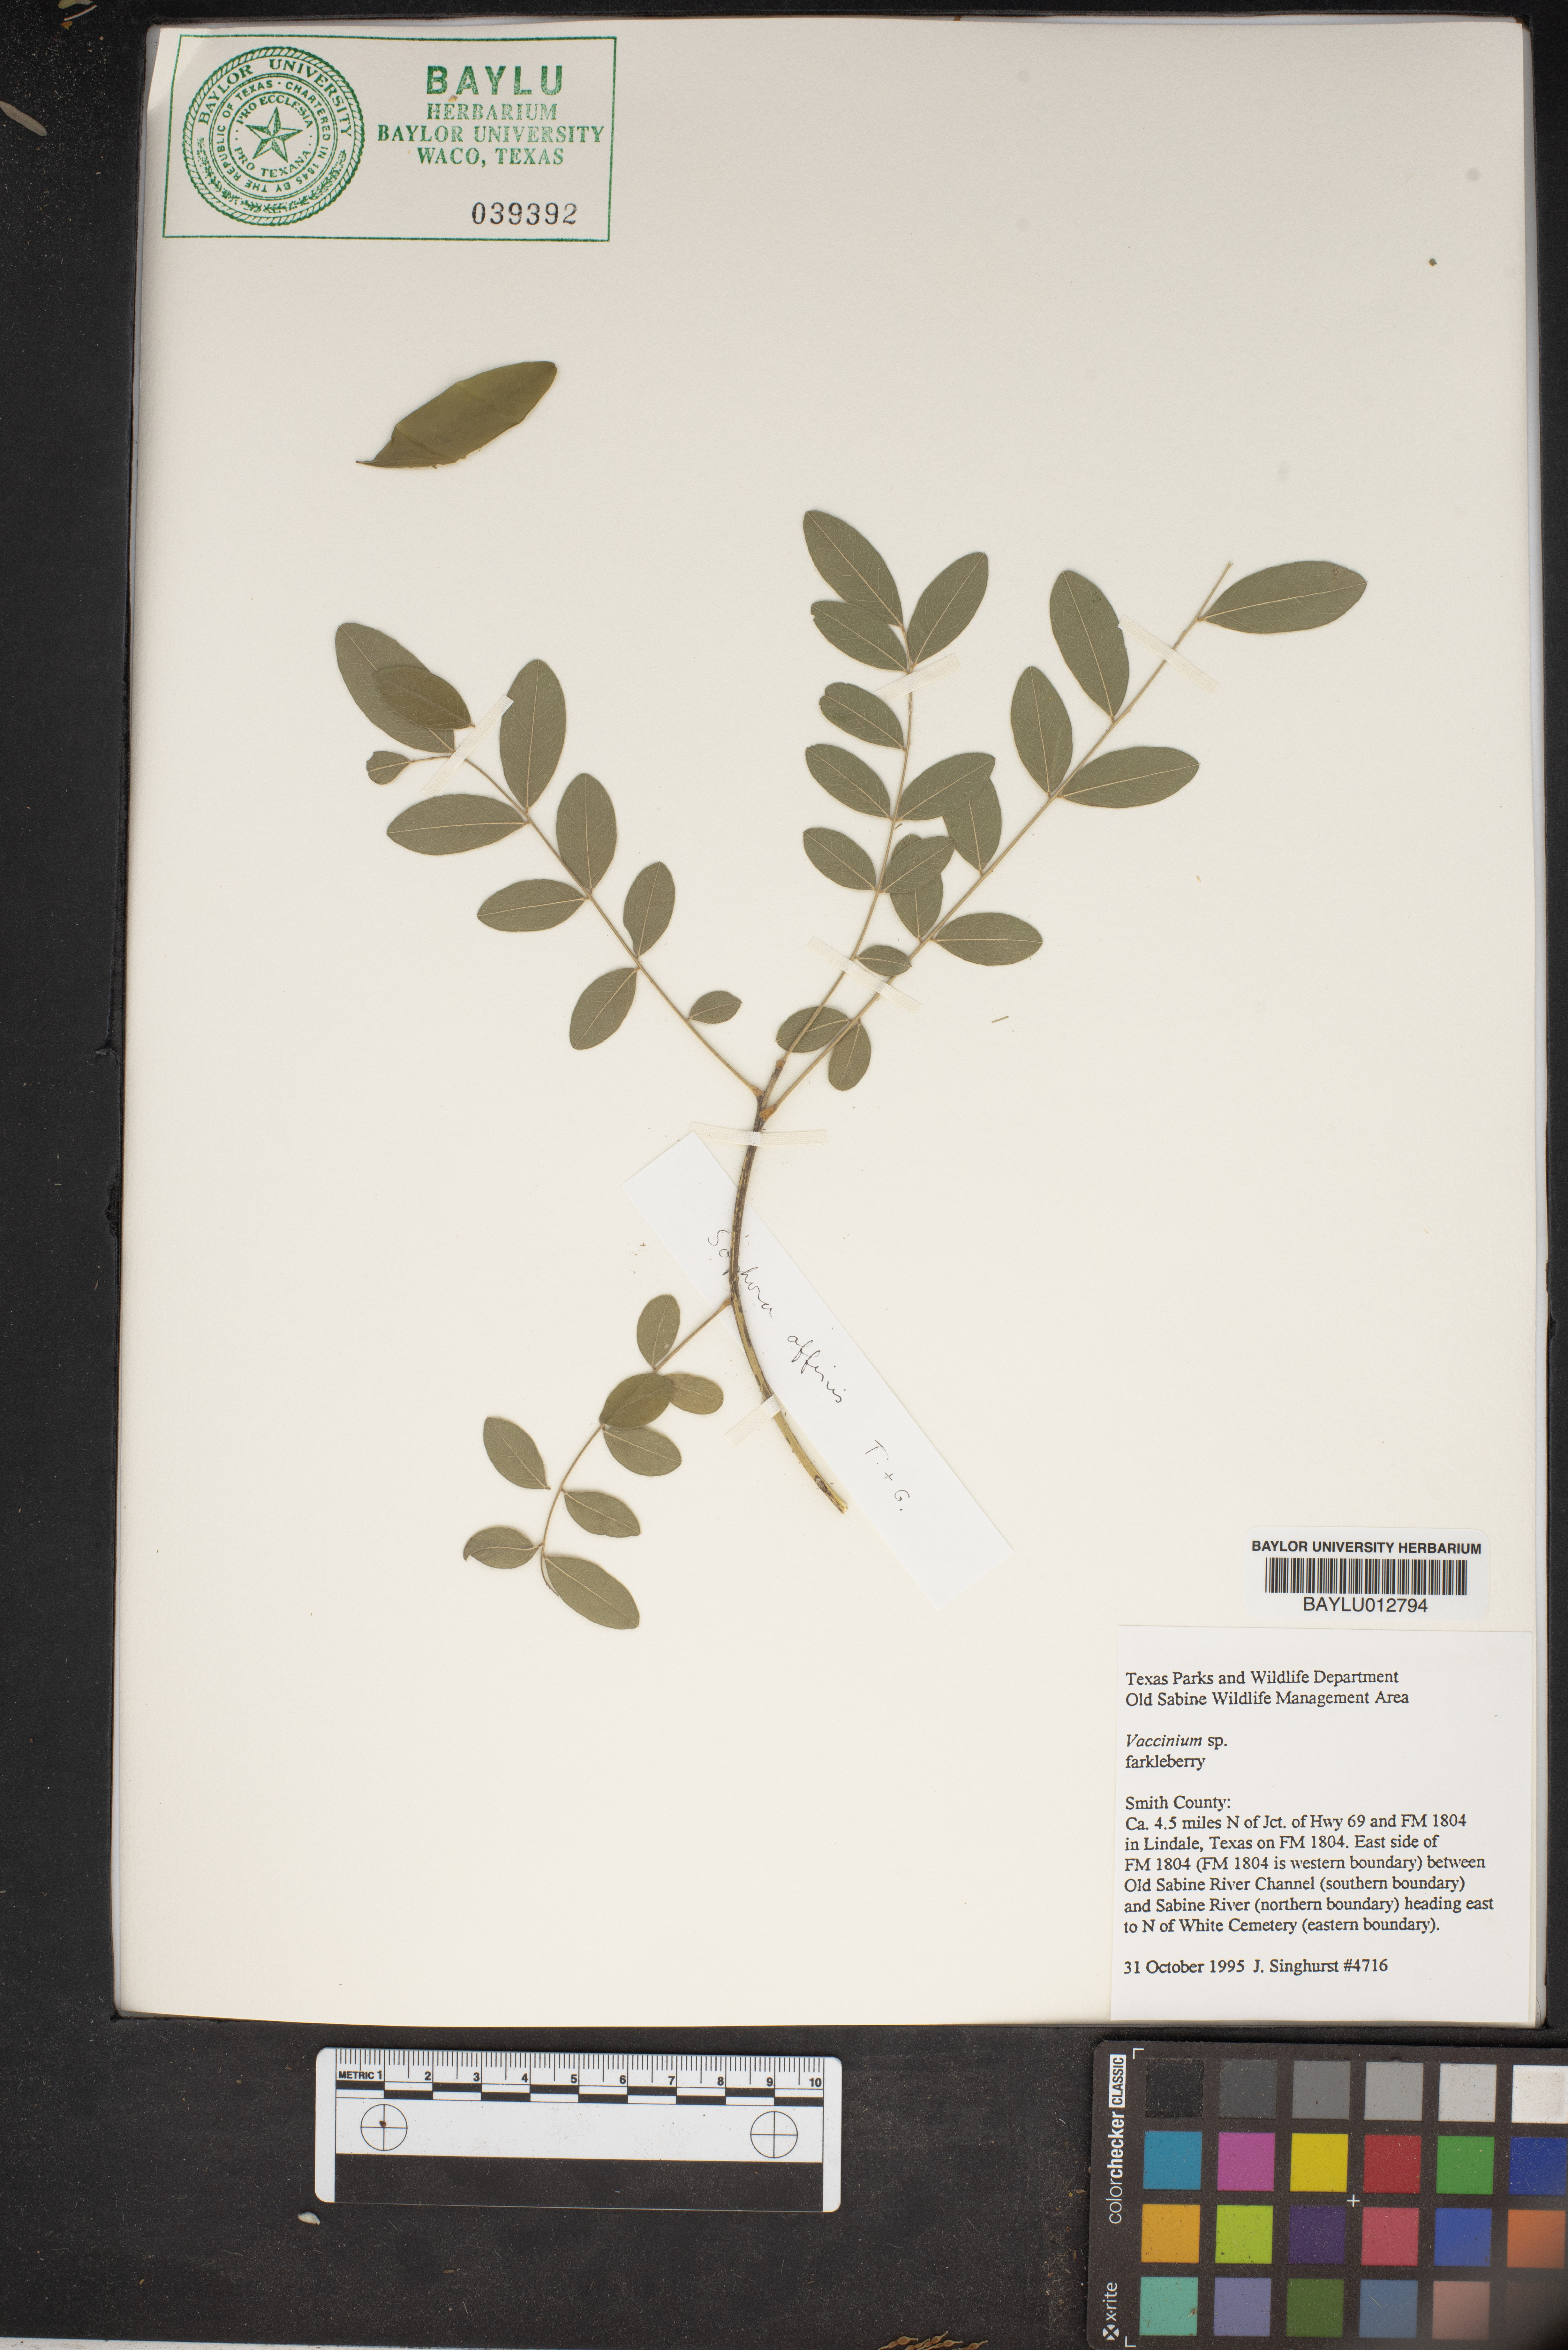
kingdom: Plantae
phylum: Tracheophyta
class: Magnoliopsida
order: Ericales
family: Ericaceae
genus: Vaccinium
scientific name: Vaccinium
